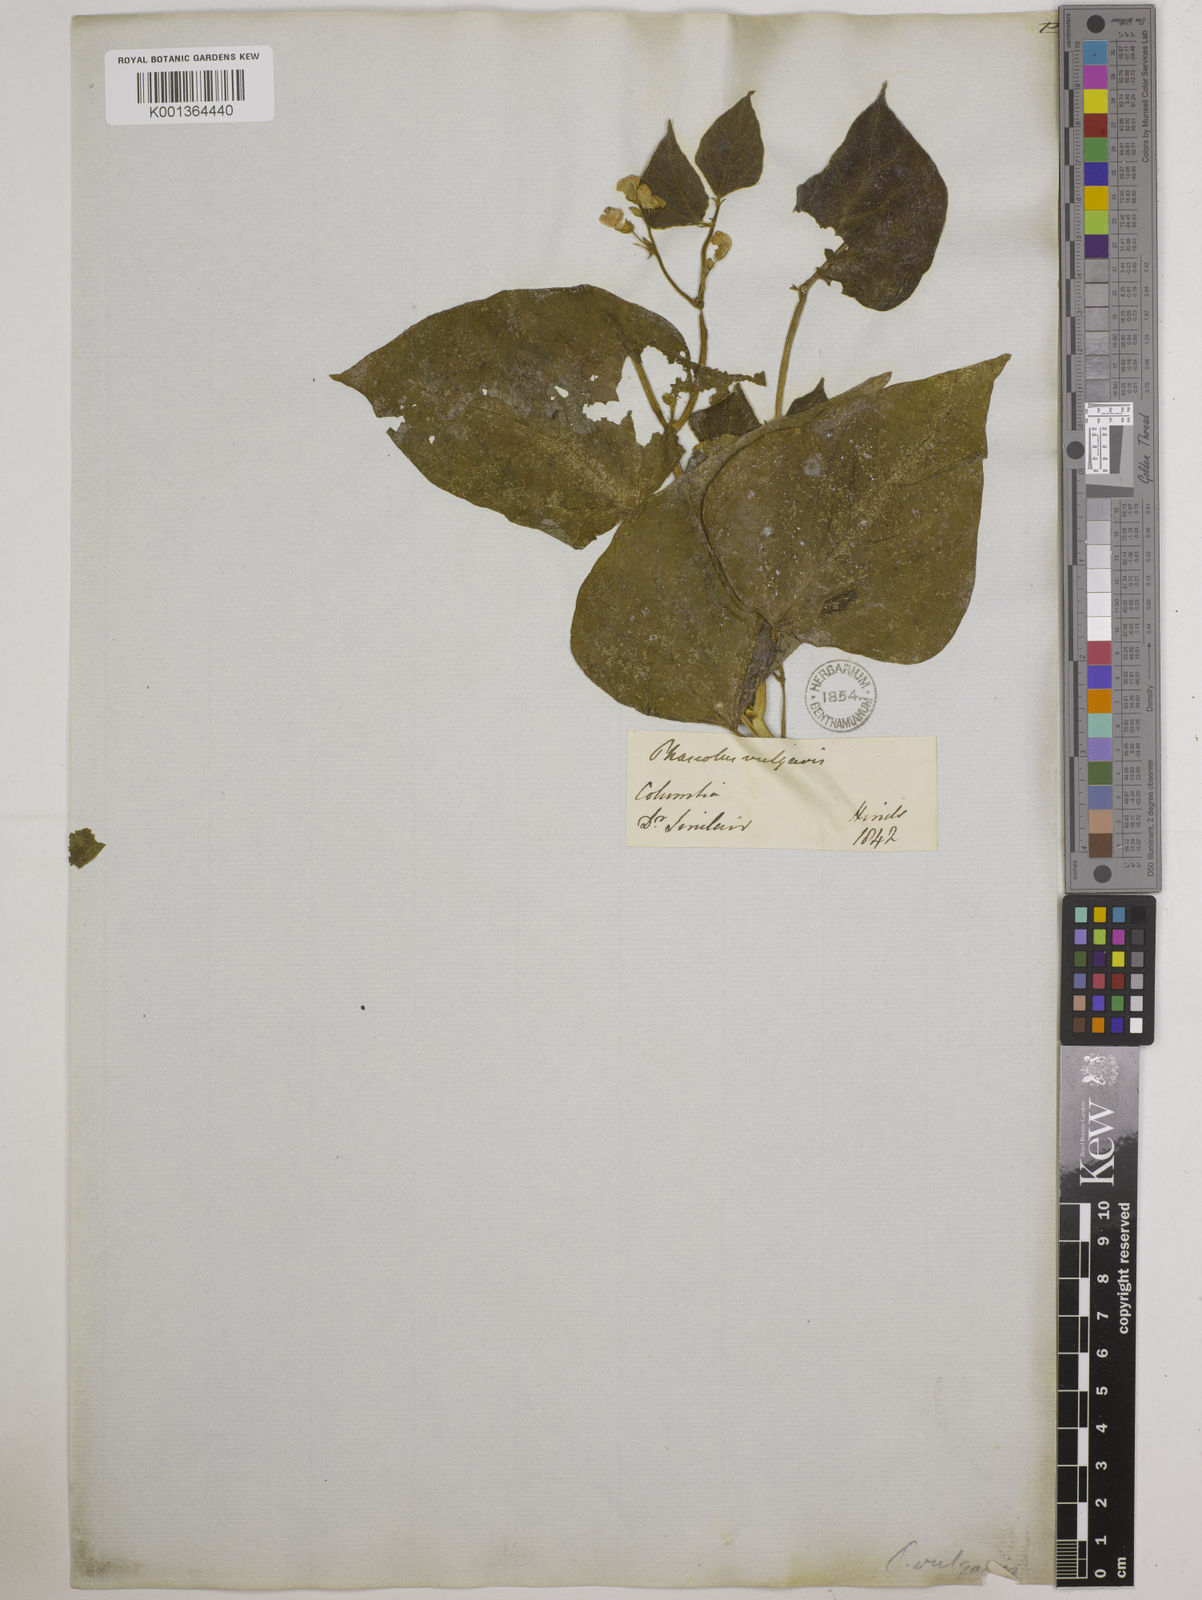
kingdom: Plantae
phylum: Tracheophyta
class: Magnoliopsida
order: Fabales
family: Fabaceae
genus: Phaseolus
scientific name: Phaseolus vulgaris
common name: Bean
